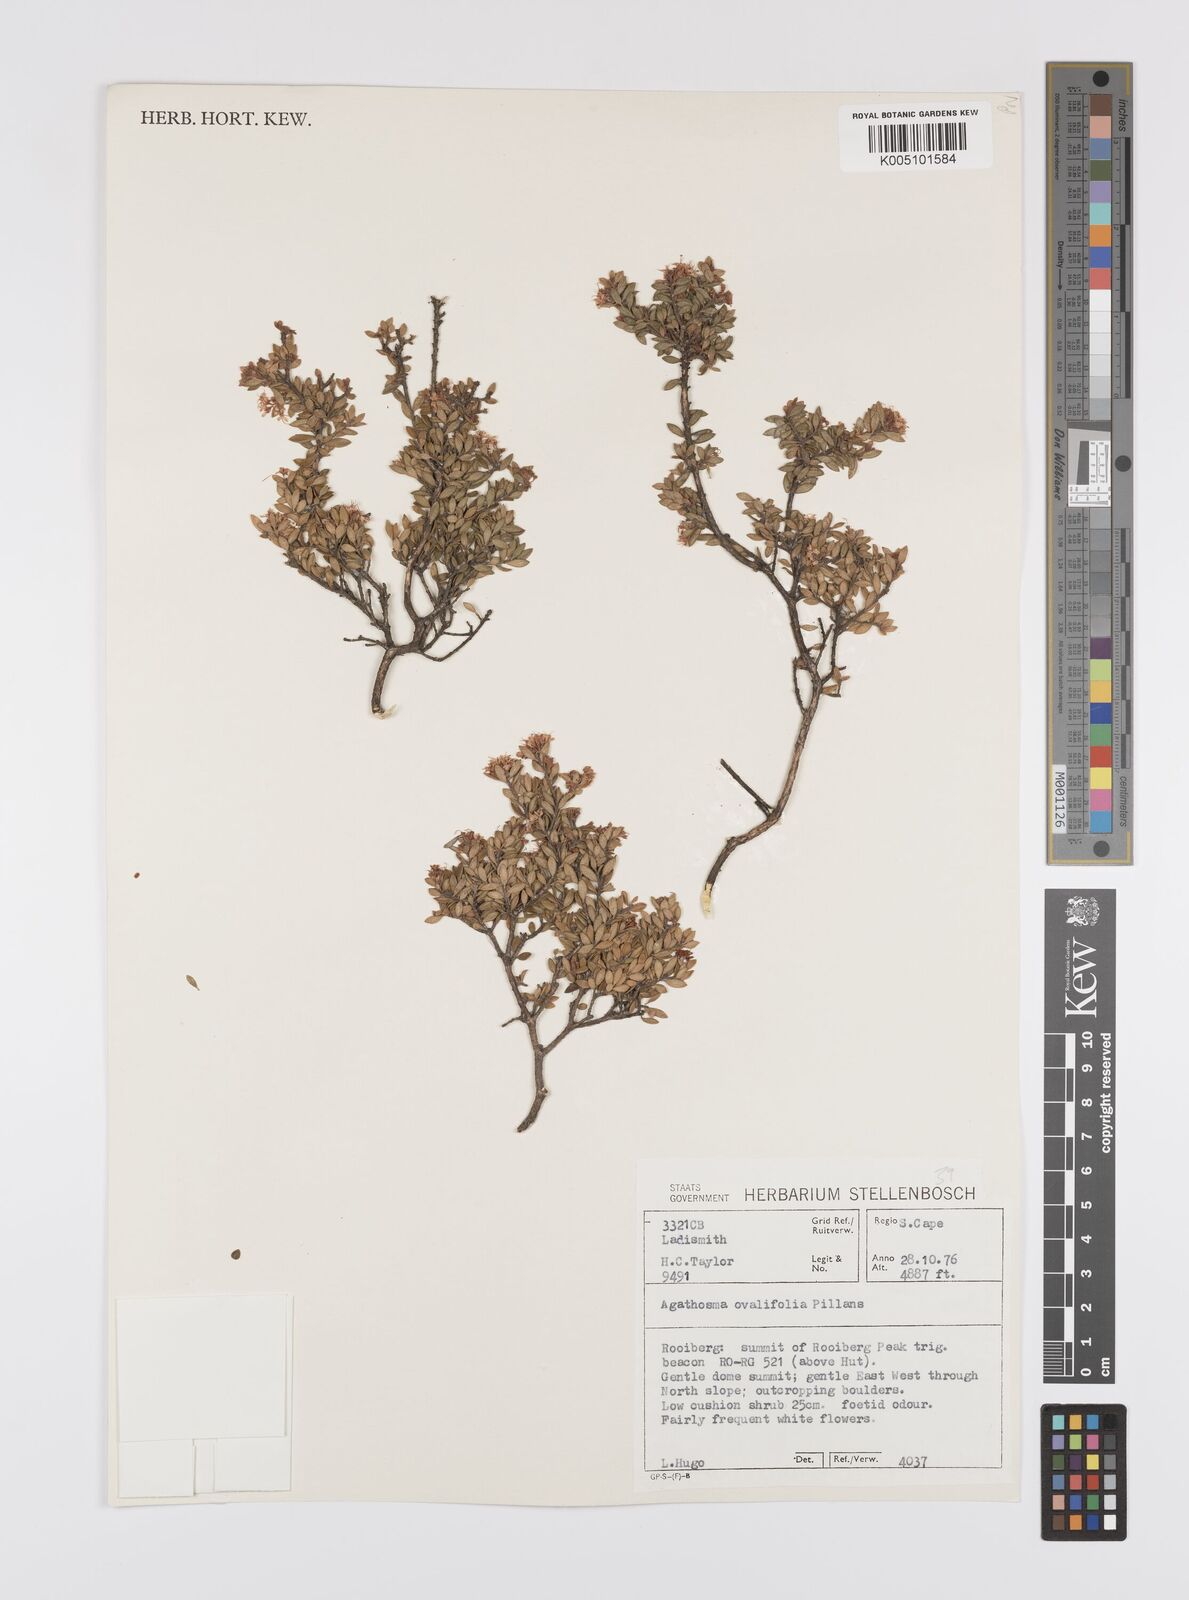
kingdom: Plantae
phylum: Tracheophyta
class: Magnoliopsida
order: Sapindales
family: Rutaceae
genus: Agathosma
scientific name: Agathosma ovalifolia
